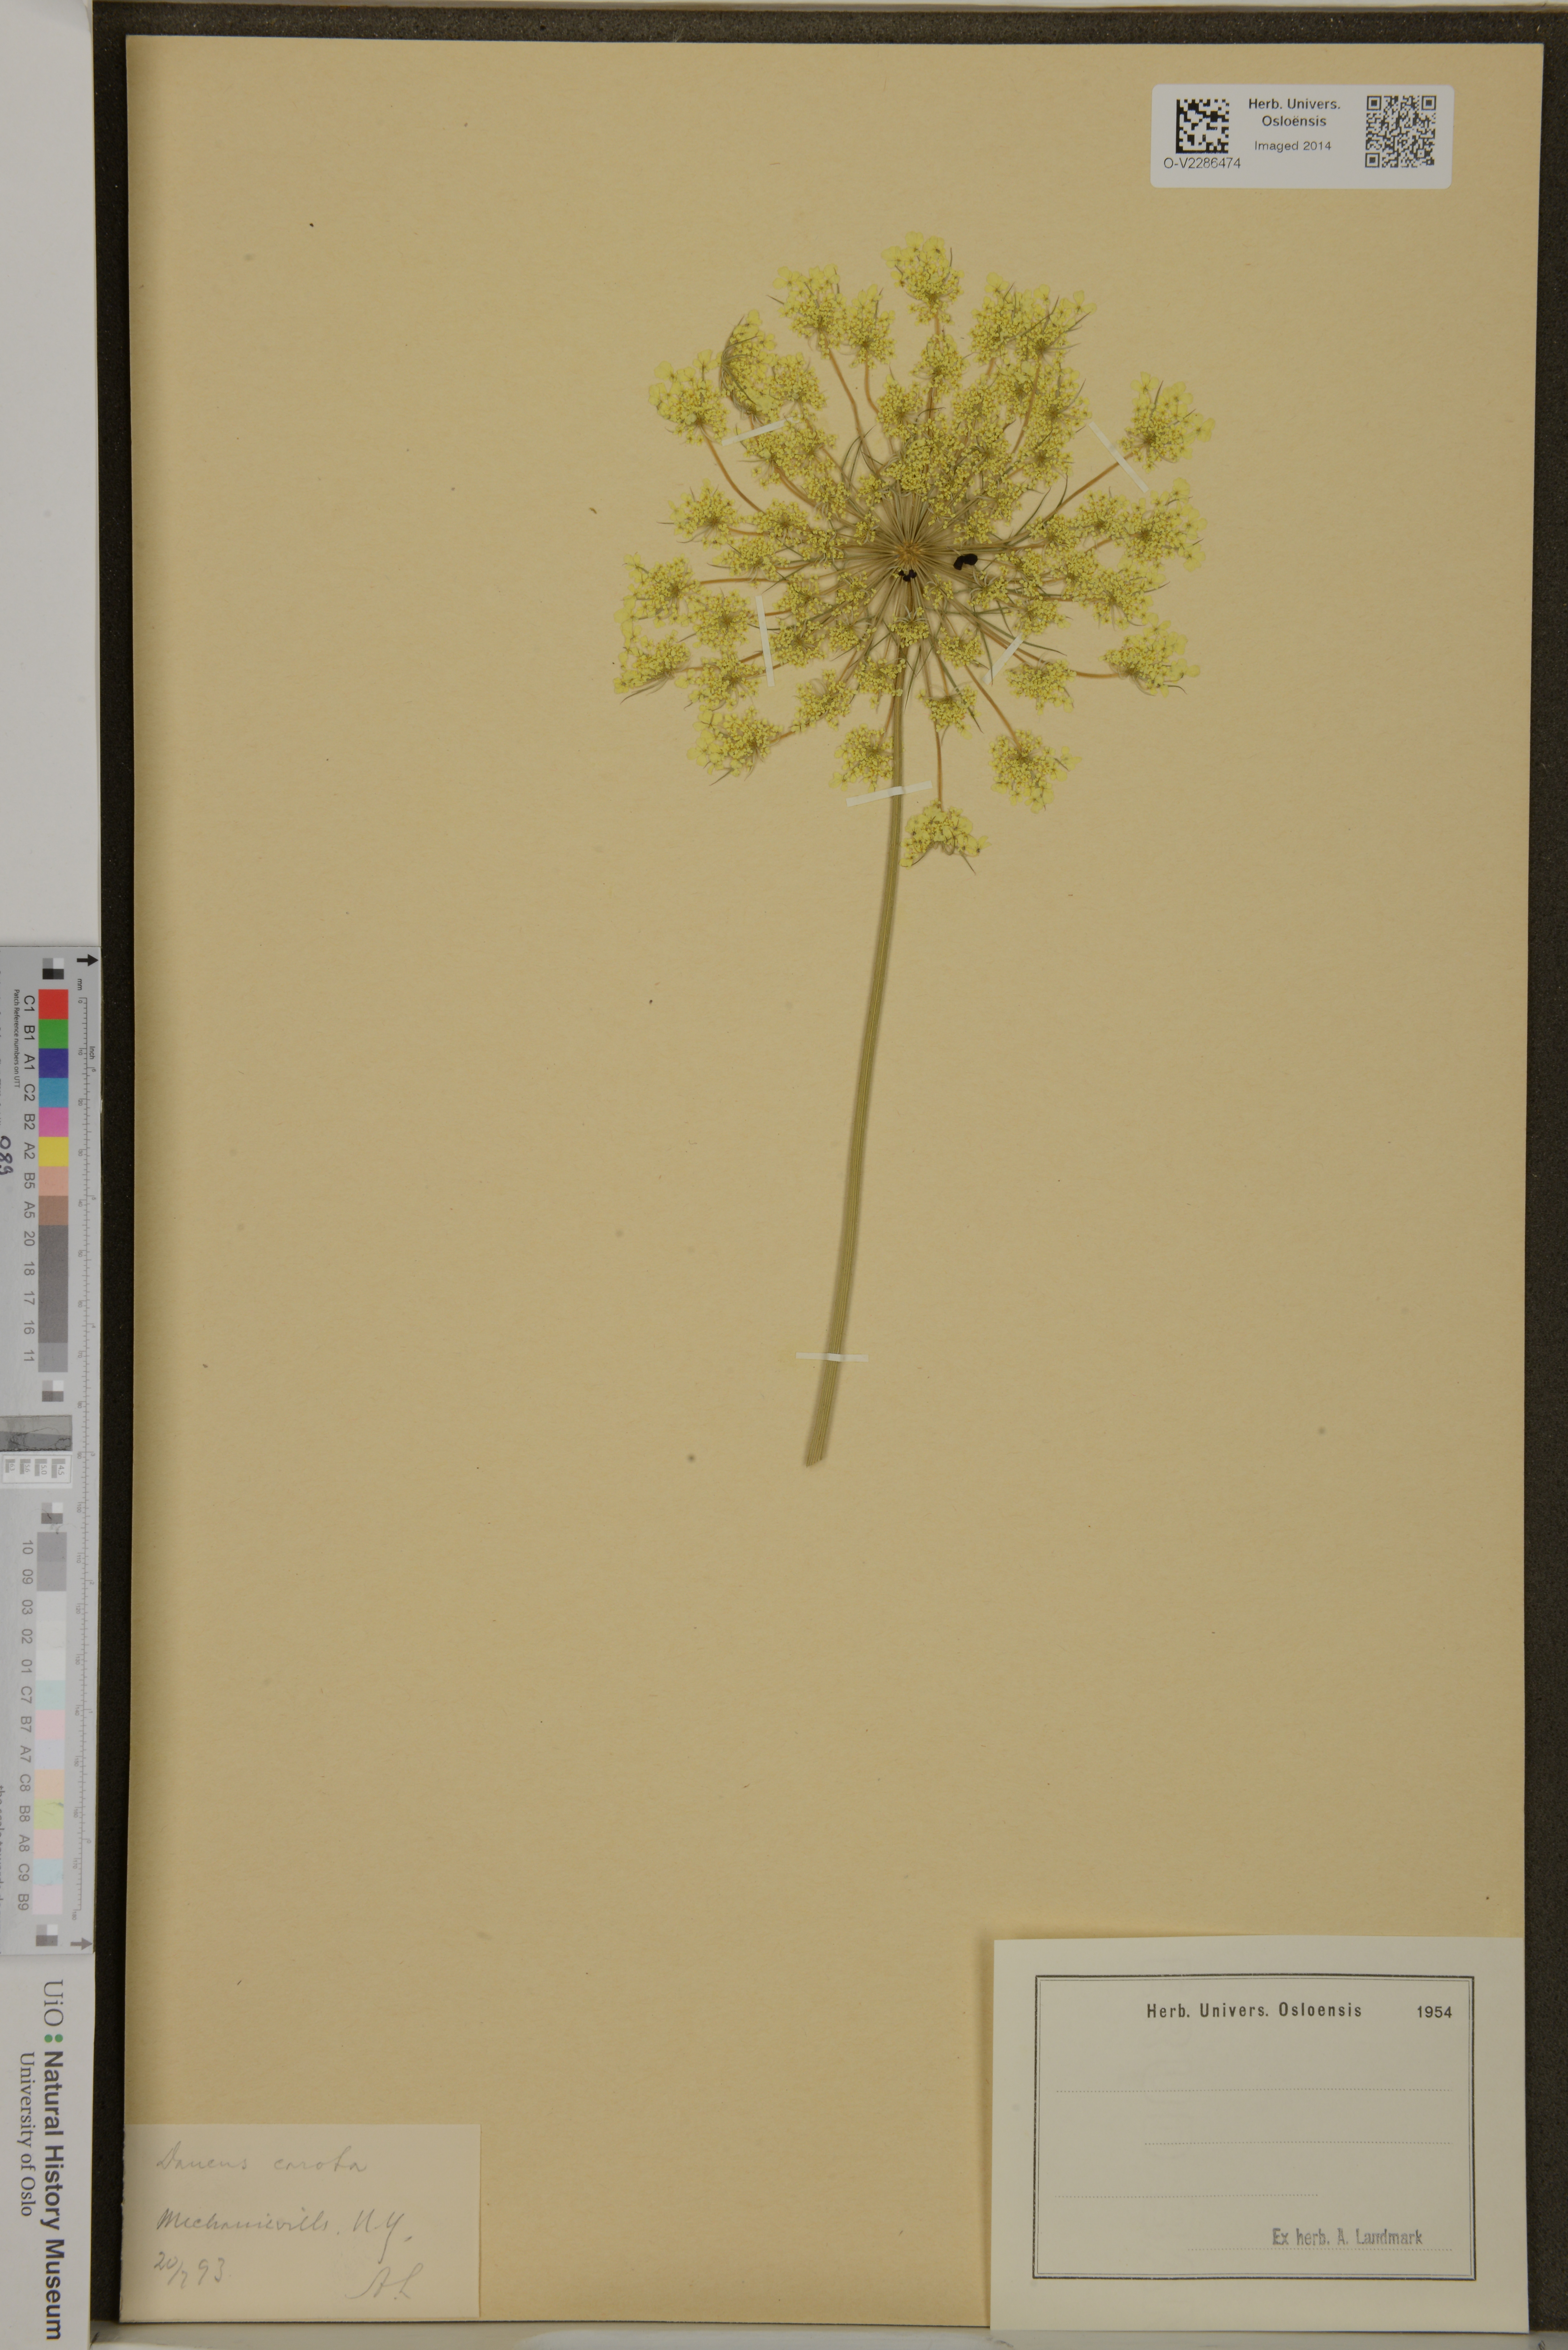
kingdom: Plantae
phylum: Tracheophyta
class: Magnoliopsida
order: Apiales
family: Apiaceae
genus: Daucus
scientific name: Daucus carota
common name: Wild carrot
